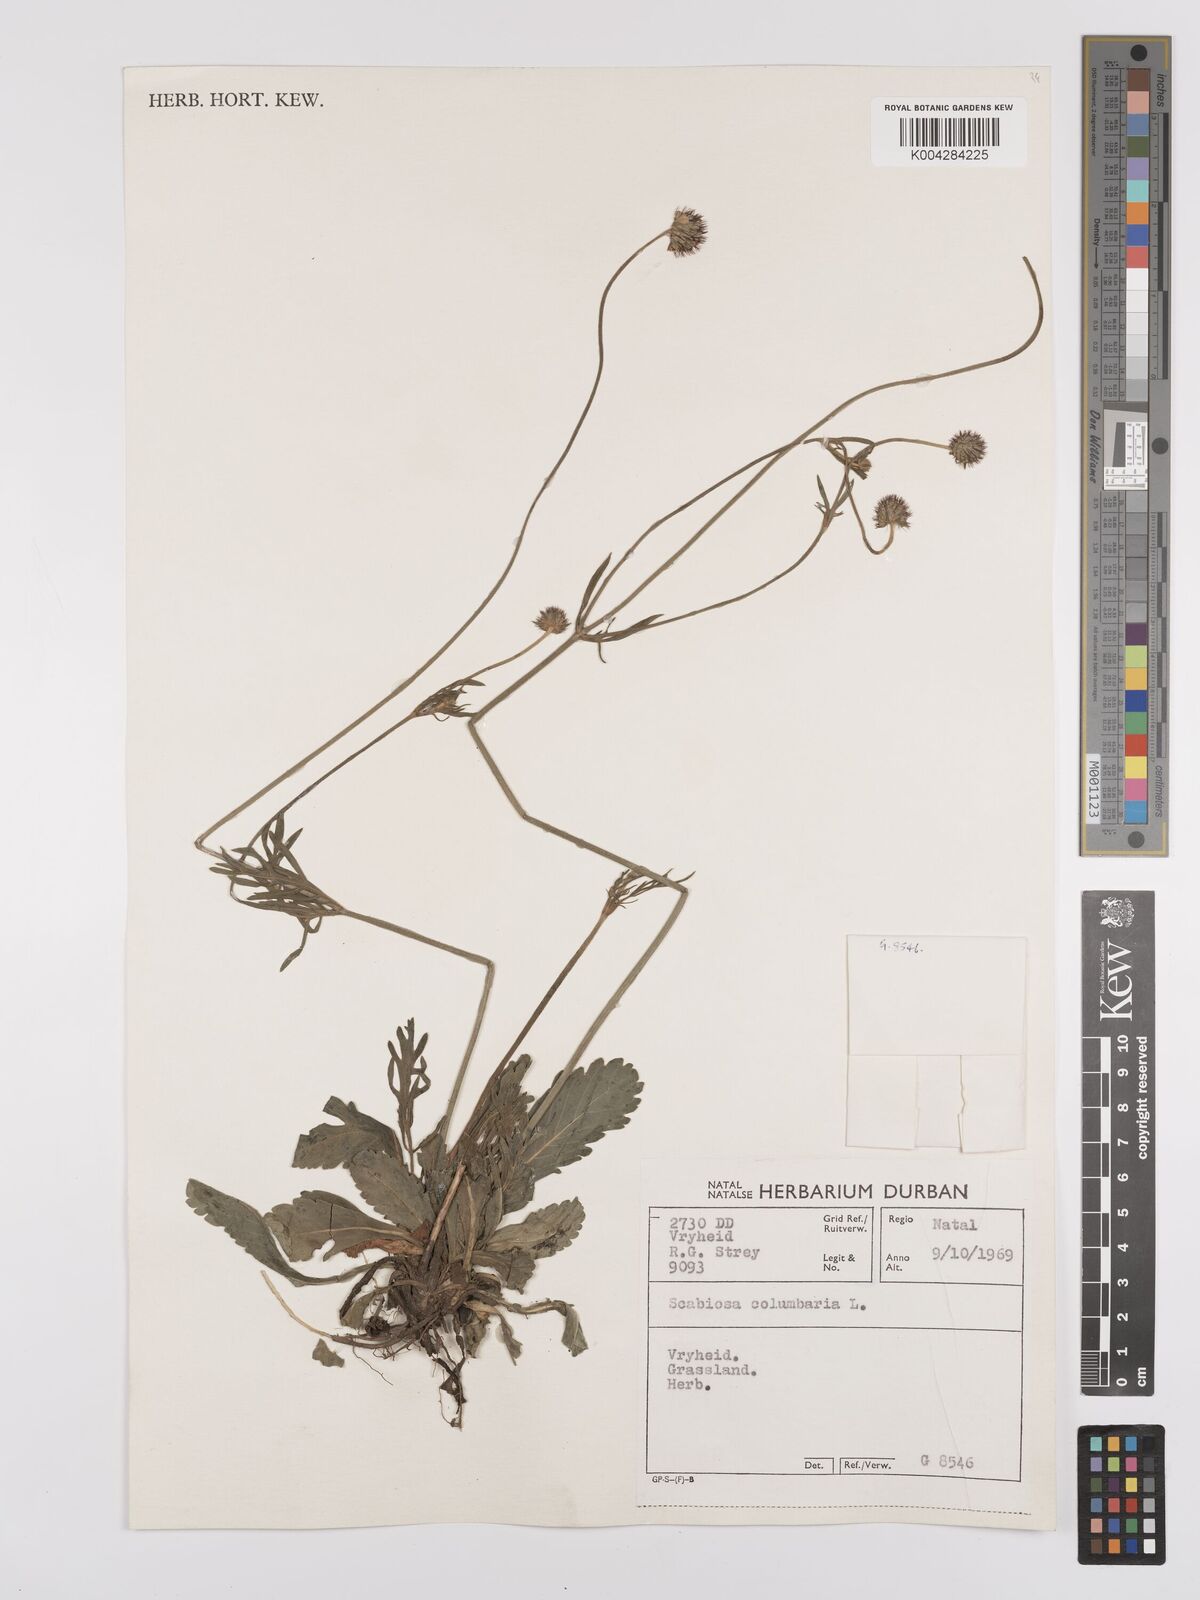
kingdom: Plantae
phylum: Tracheophyta
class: Magnoliopsida
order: Dipsacales
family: Caprifoliaceae
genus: Scabiosa
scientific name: Scabiosa columbaria
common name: Small scabious
